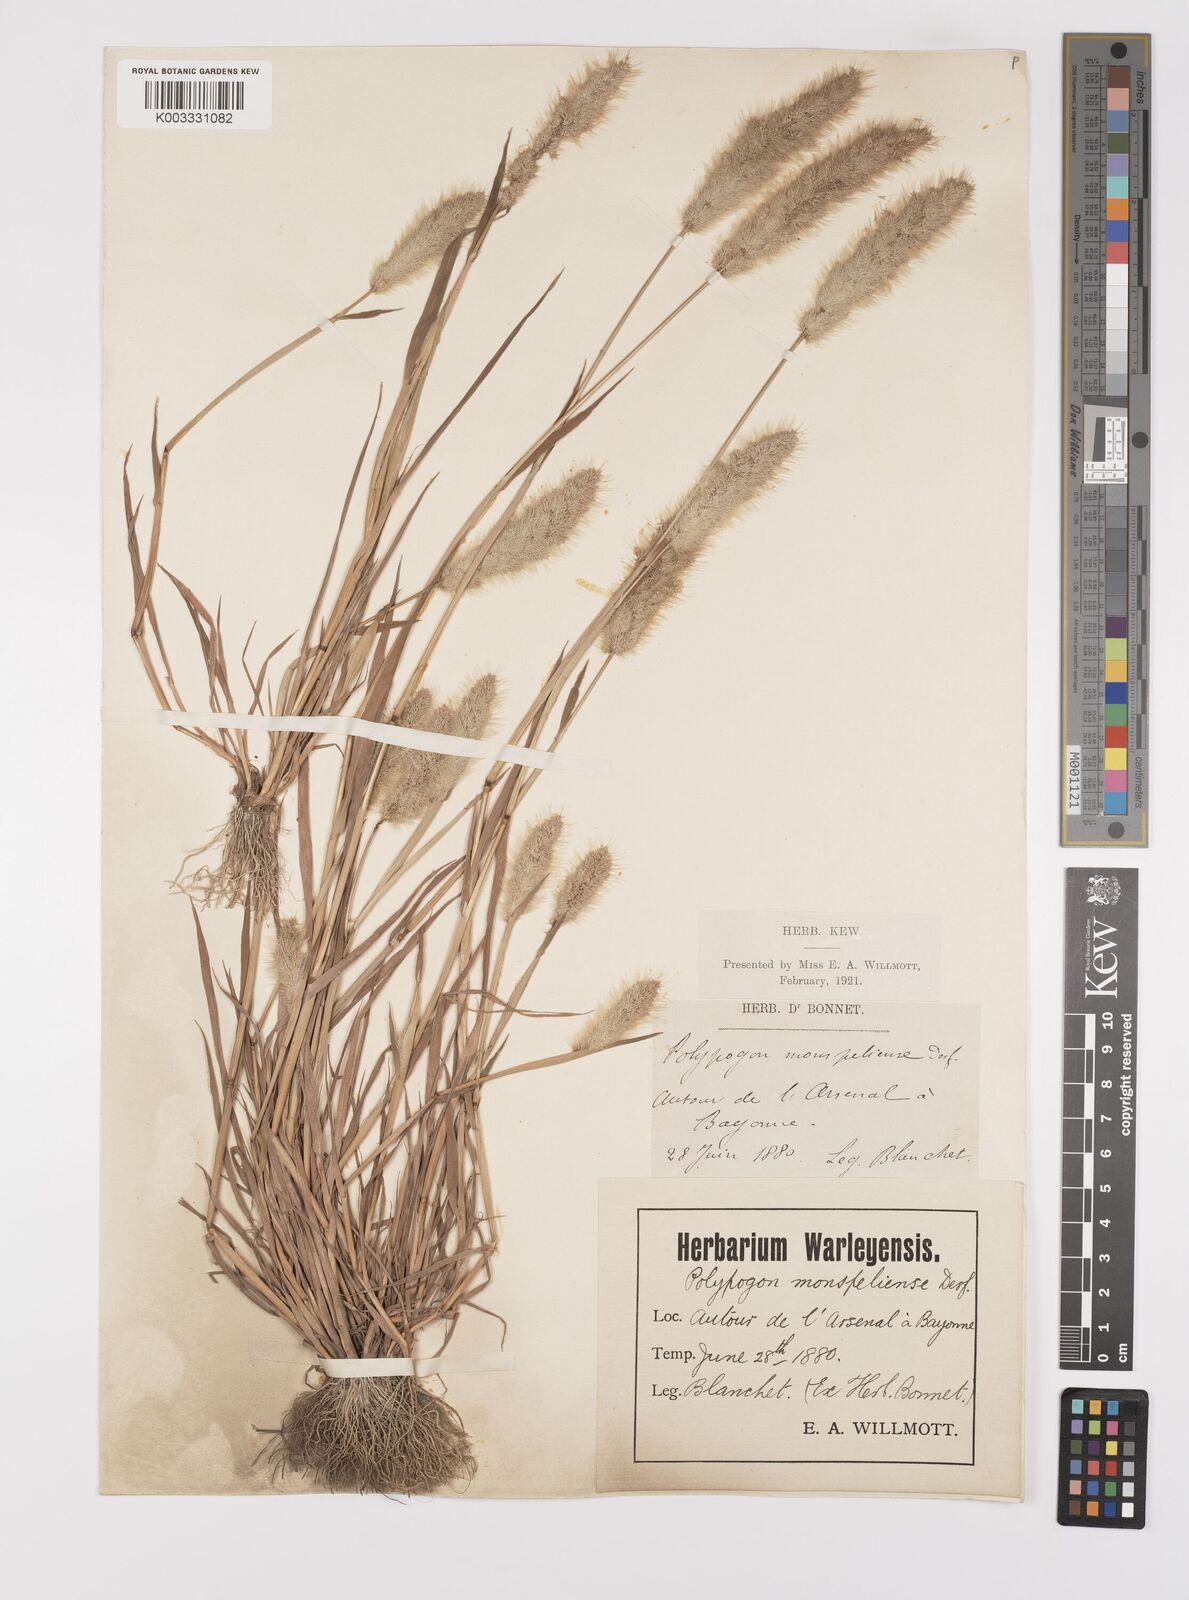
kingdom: Plantae
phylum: Tracheophyta
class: Liliopsida
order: Poales
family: Poaceae
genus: Polypogon
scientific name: Polypogon monspeliensis
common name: Annual rabbitsfoot grass
